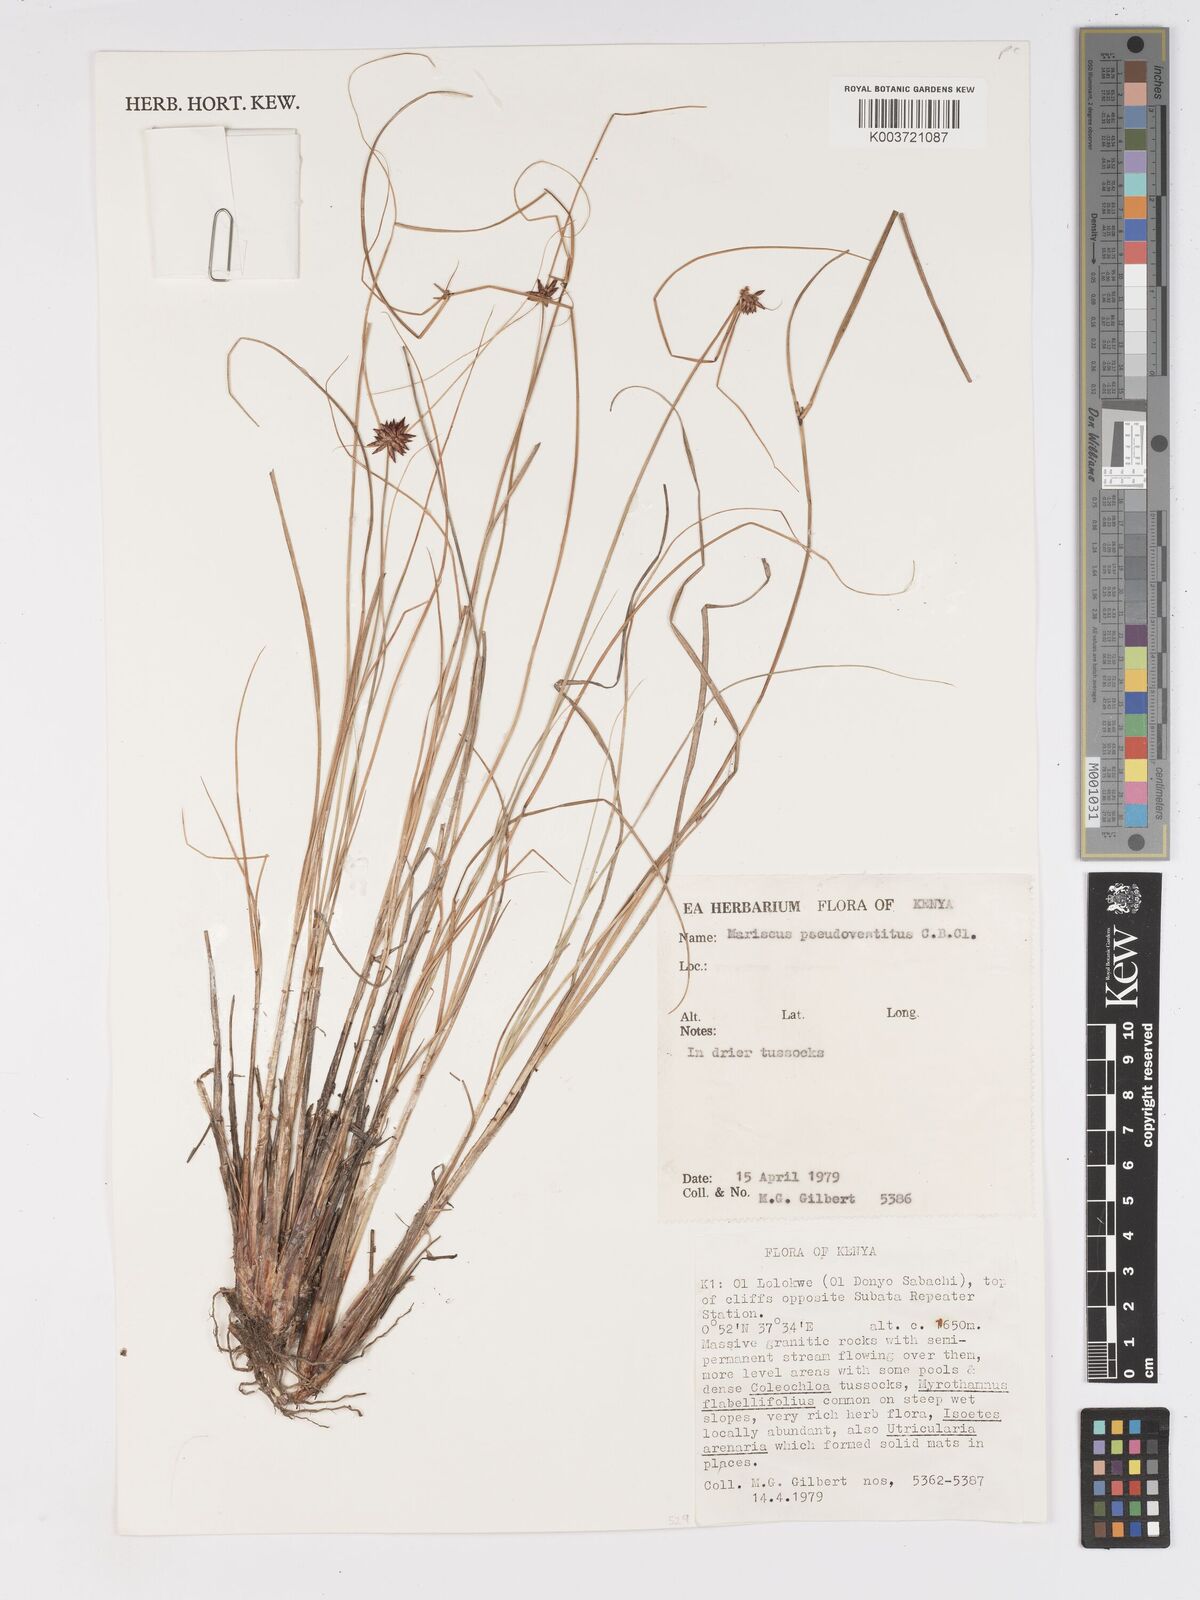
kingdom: Plantae
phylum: Tracheophyta
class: Liliopsida
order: Poales
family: Cyperaceae
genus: Cyperus
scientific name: Cyperus vestitus
